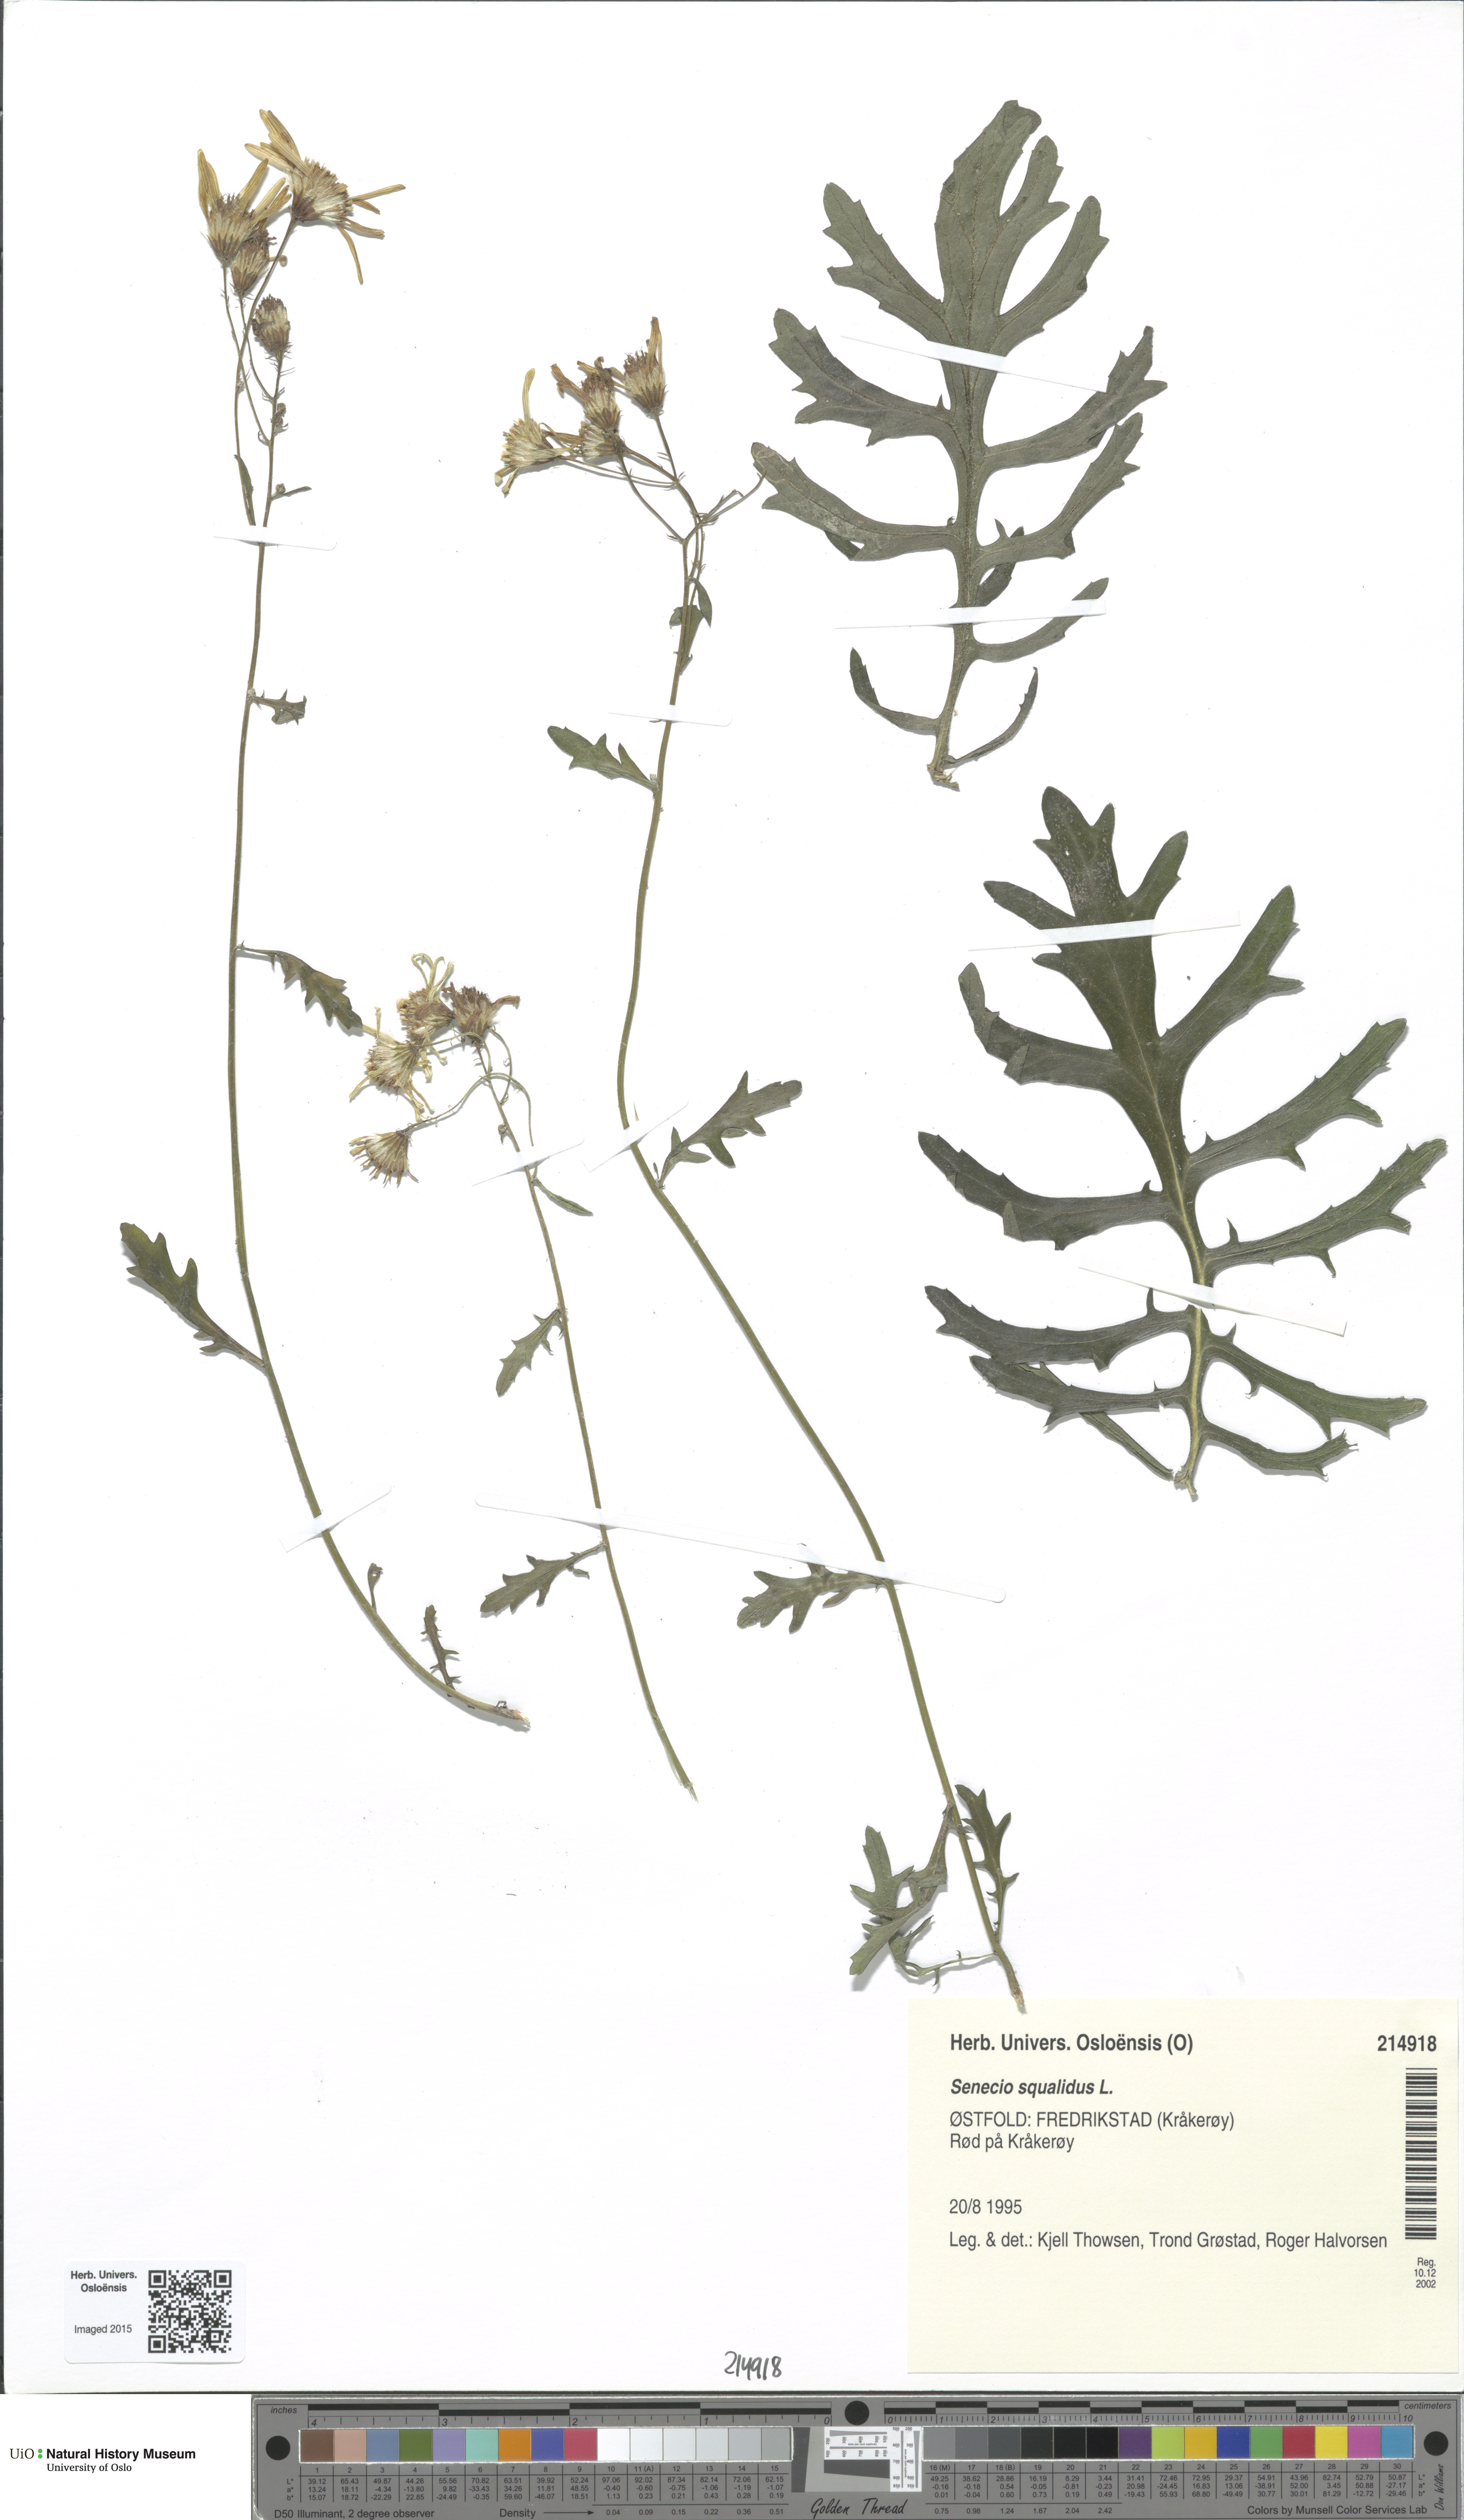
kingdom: Plantae
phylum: Tracheophyta
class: Magnoliopsida
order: Asterales
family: Asteraceae
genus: Senecio
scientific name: Senecio squalidus
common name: Oxford ragwort
